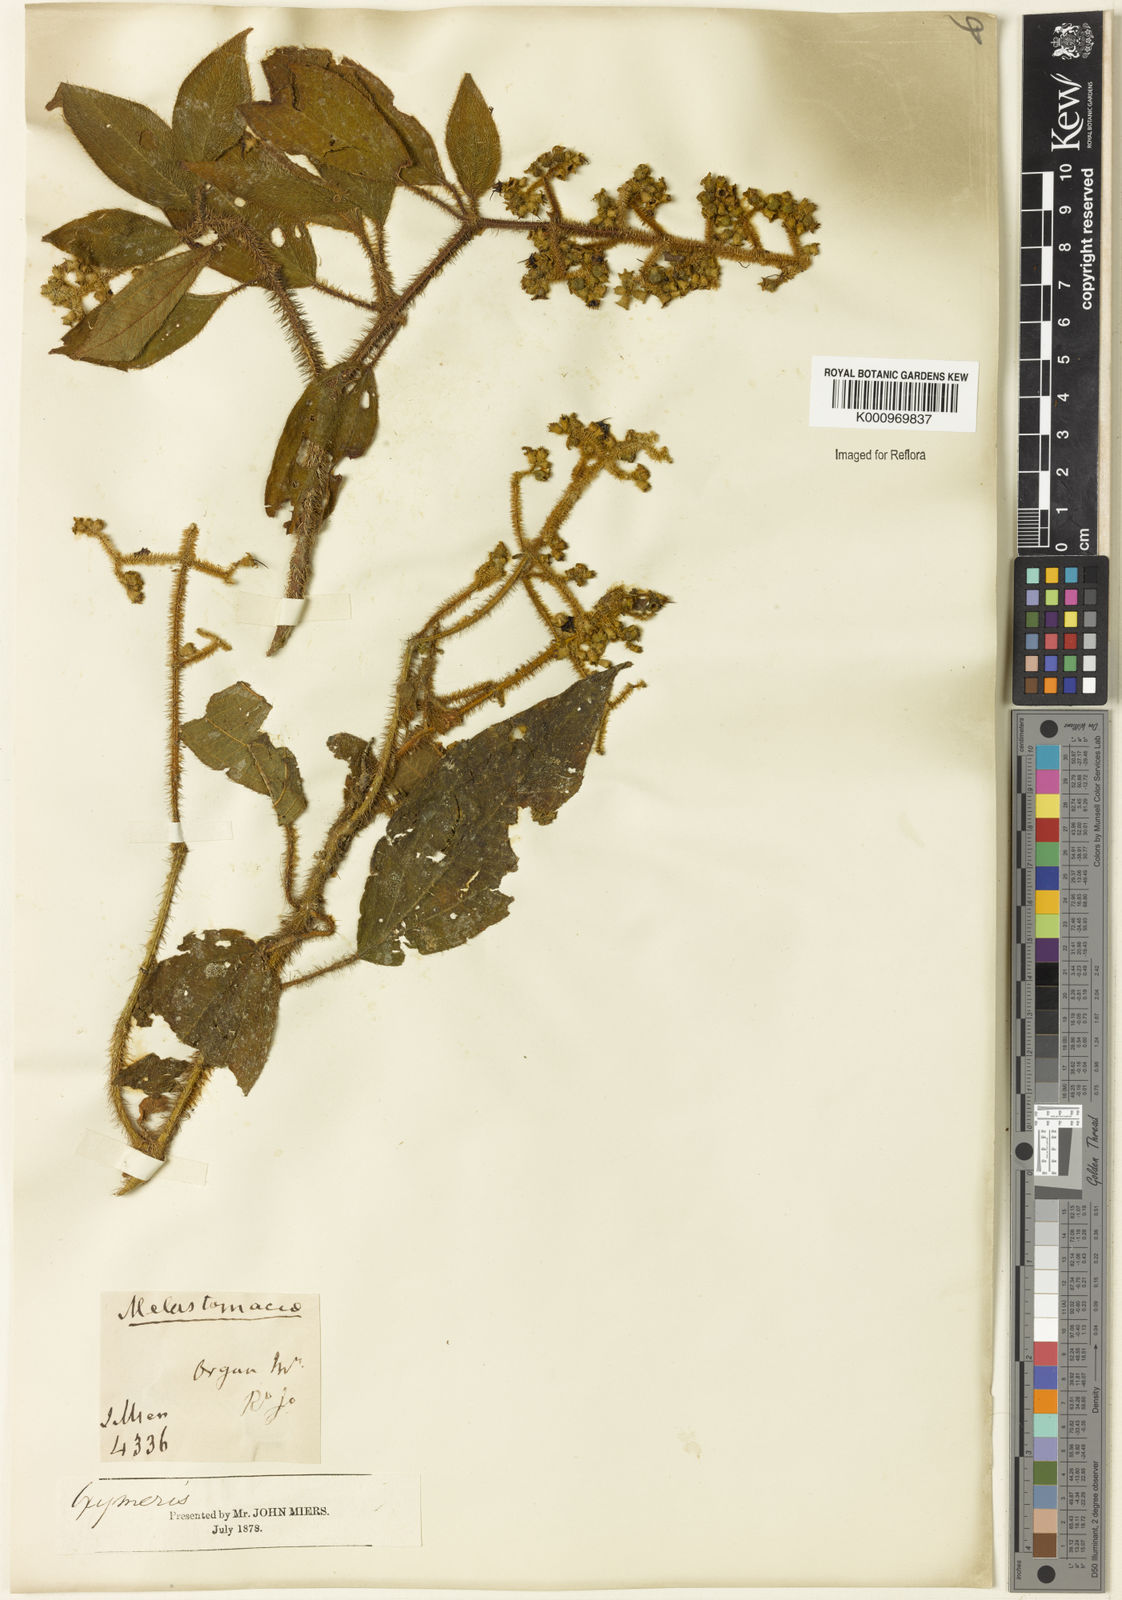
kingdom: Plantae
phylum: Tracheophyta
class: Magnoliopsida
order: Myrtales
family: Melastomataceae
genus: Miconia
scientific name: Miconia
